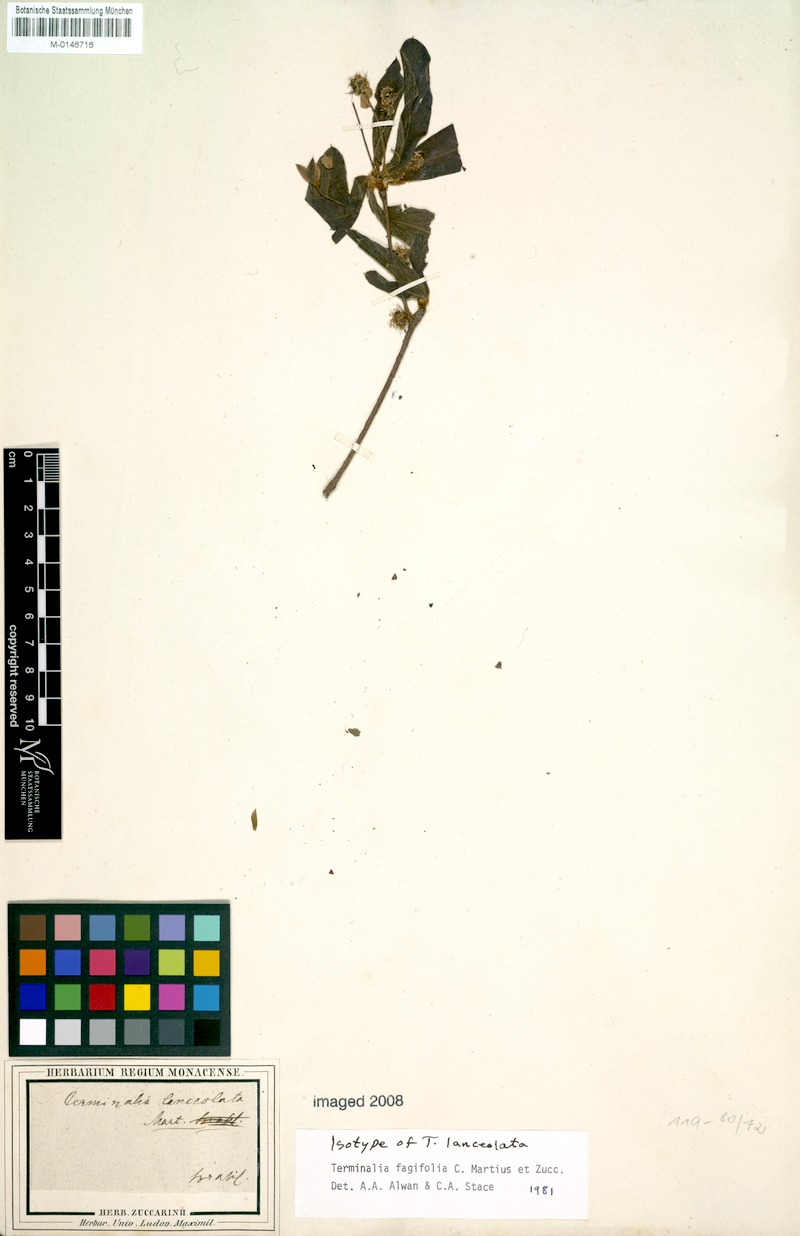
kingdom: Plantae
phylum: Tracheophyta
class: Magnoliopsida
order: Myrtales
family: Combretaceae
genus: Terminalia
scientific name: Terminalia fagifolia
